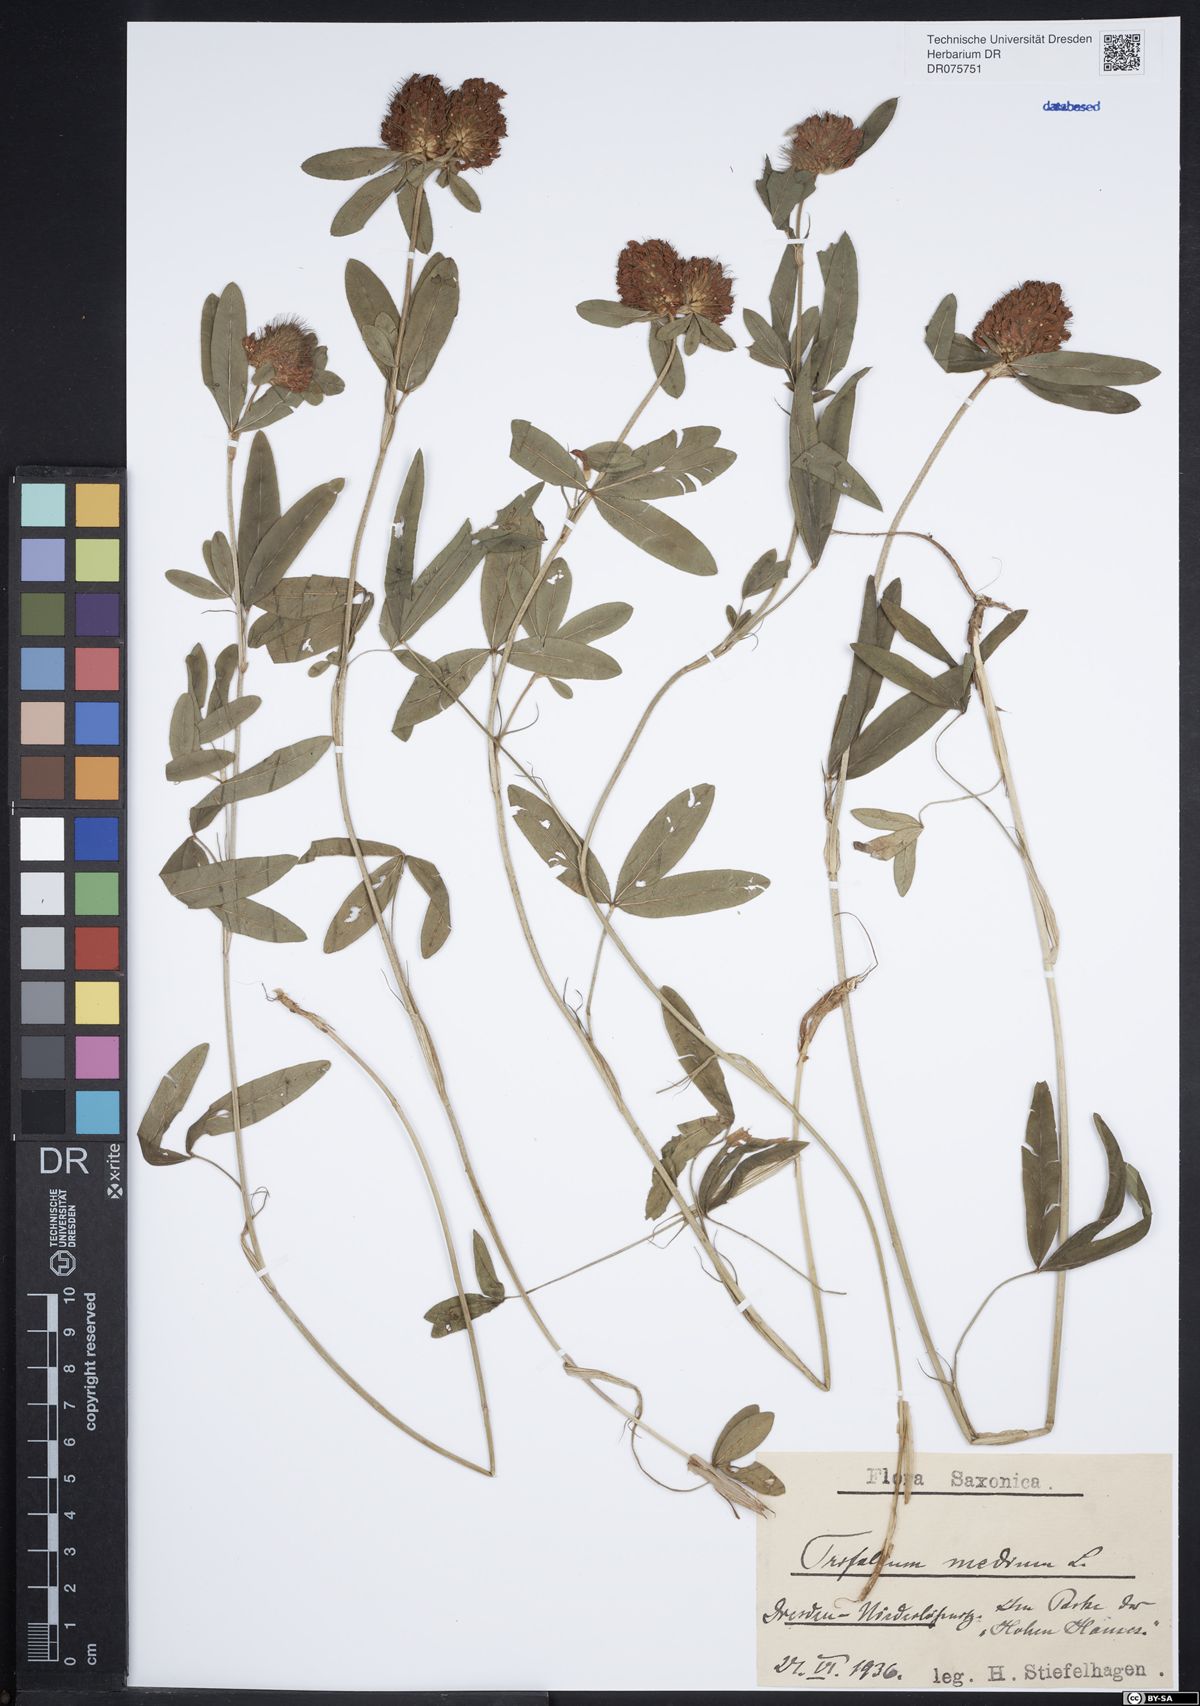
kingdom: Plantae
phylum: Tracheophyta
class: Magnoliopsida
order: Fabales
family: Fabaceae
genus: Trifolium
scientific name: Trifolium medium
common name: Zigzag clover
